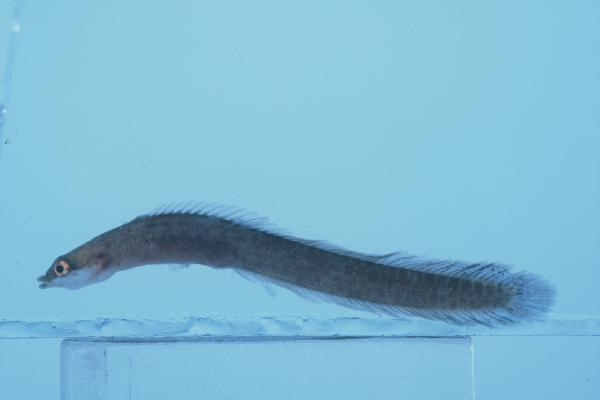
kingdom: Animalia
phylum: Chordata
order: Perciformes
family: Pseudochromidae
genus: Halimuraena
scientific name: Halimuraena shakai
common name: Zulu snakelet
